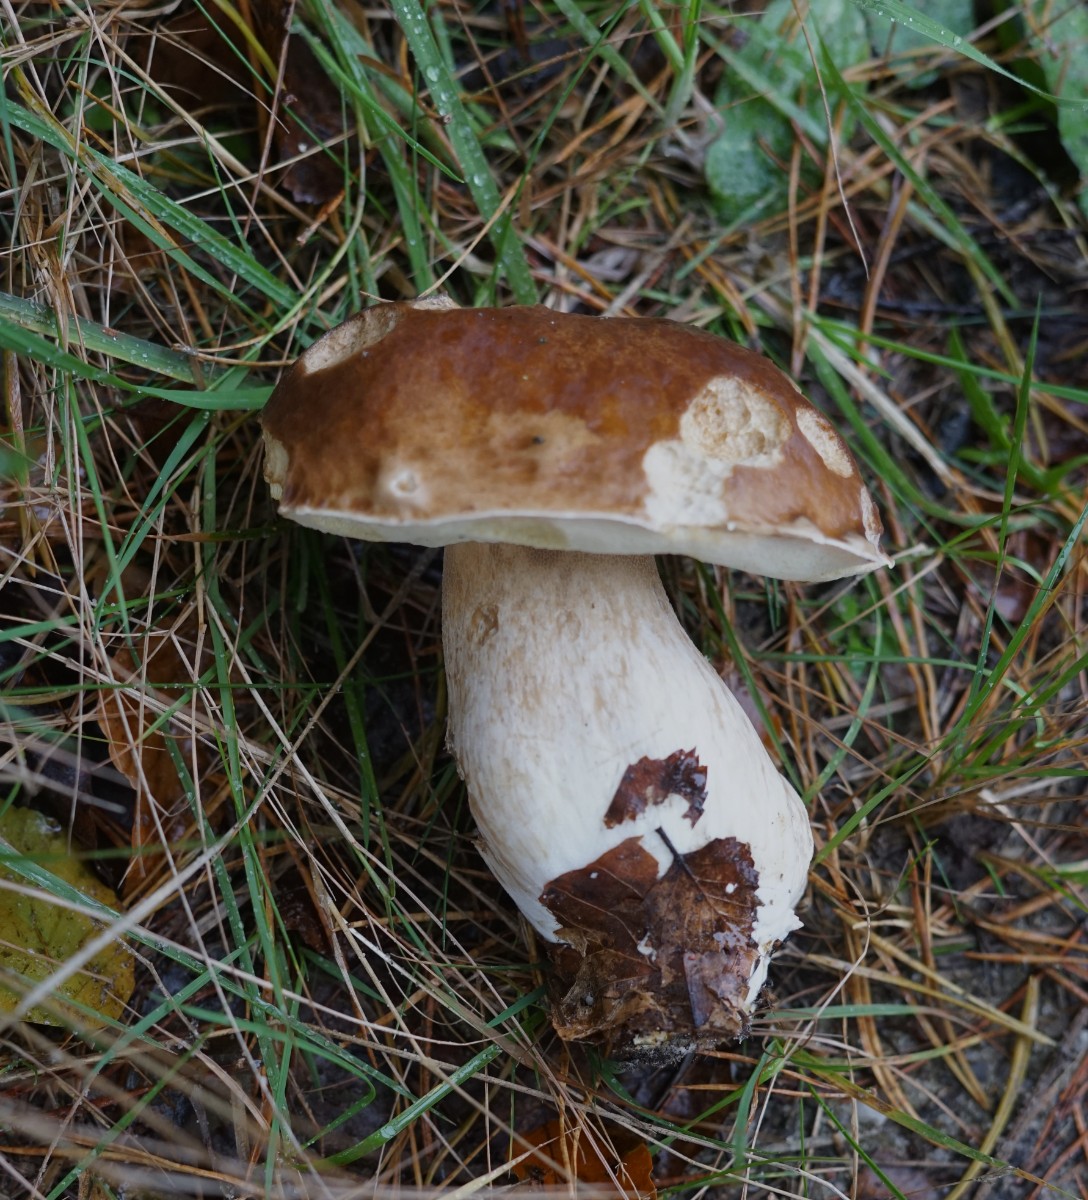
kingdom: Fungi
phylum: Basidiomycota
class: Agaricomycetes
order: Boletales
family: Boletaceae
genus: Boletus
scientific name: Boletus edulis
